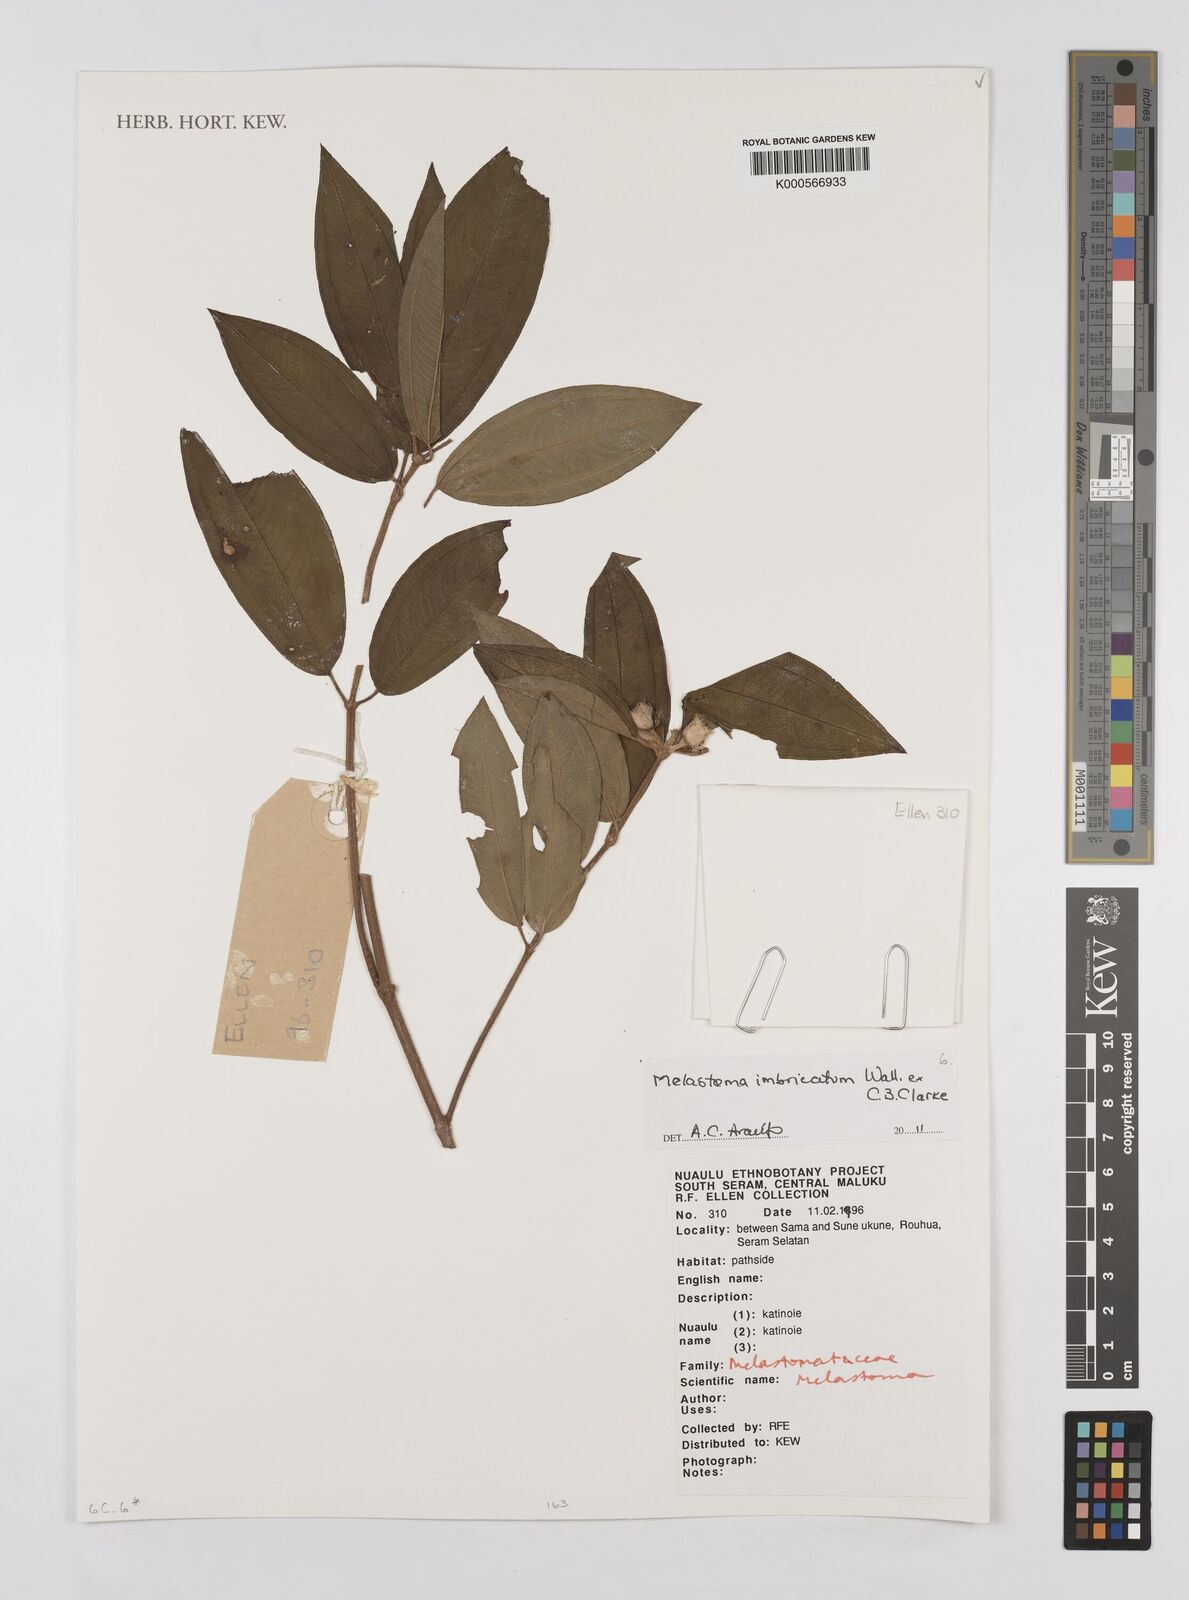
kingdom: Plantae
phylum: Tracheophyta
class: Magnoliopsida
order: Myrtales
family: Melastomataceae
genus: Melastoma
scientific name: Melastoma
